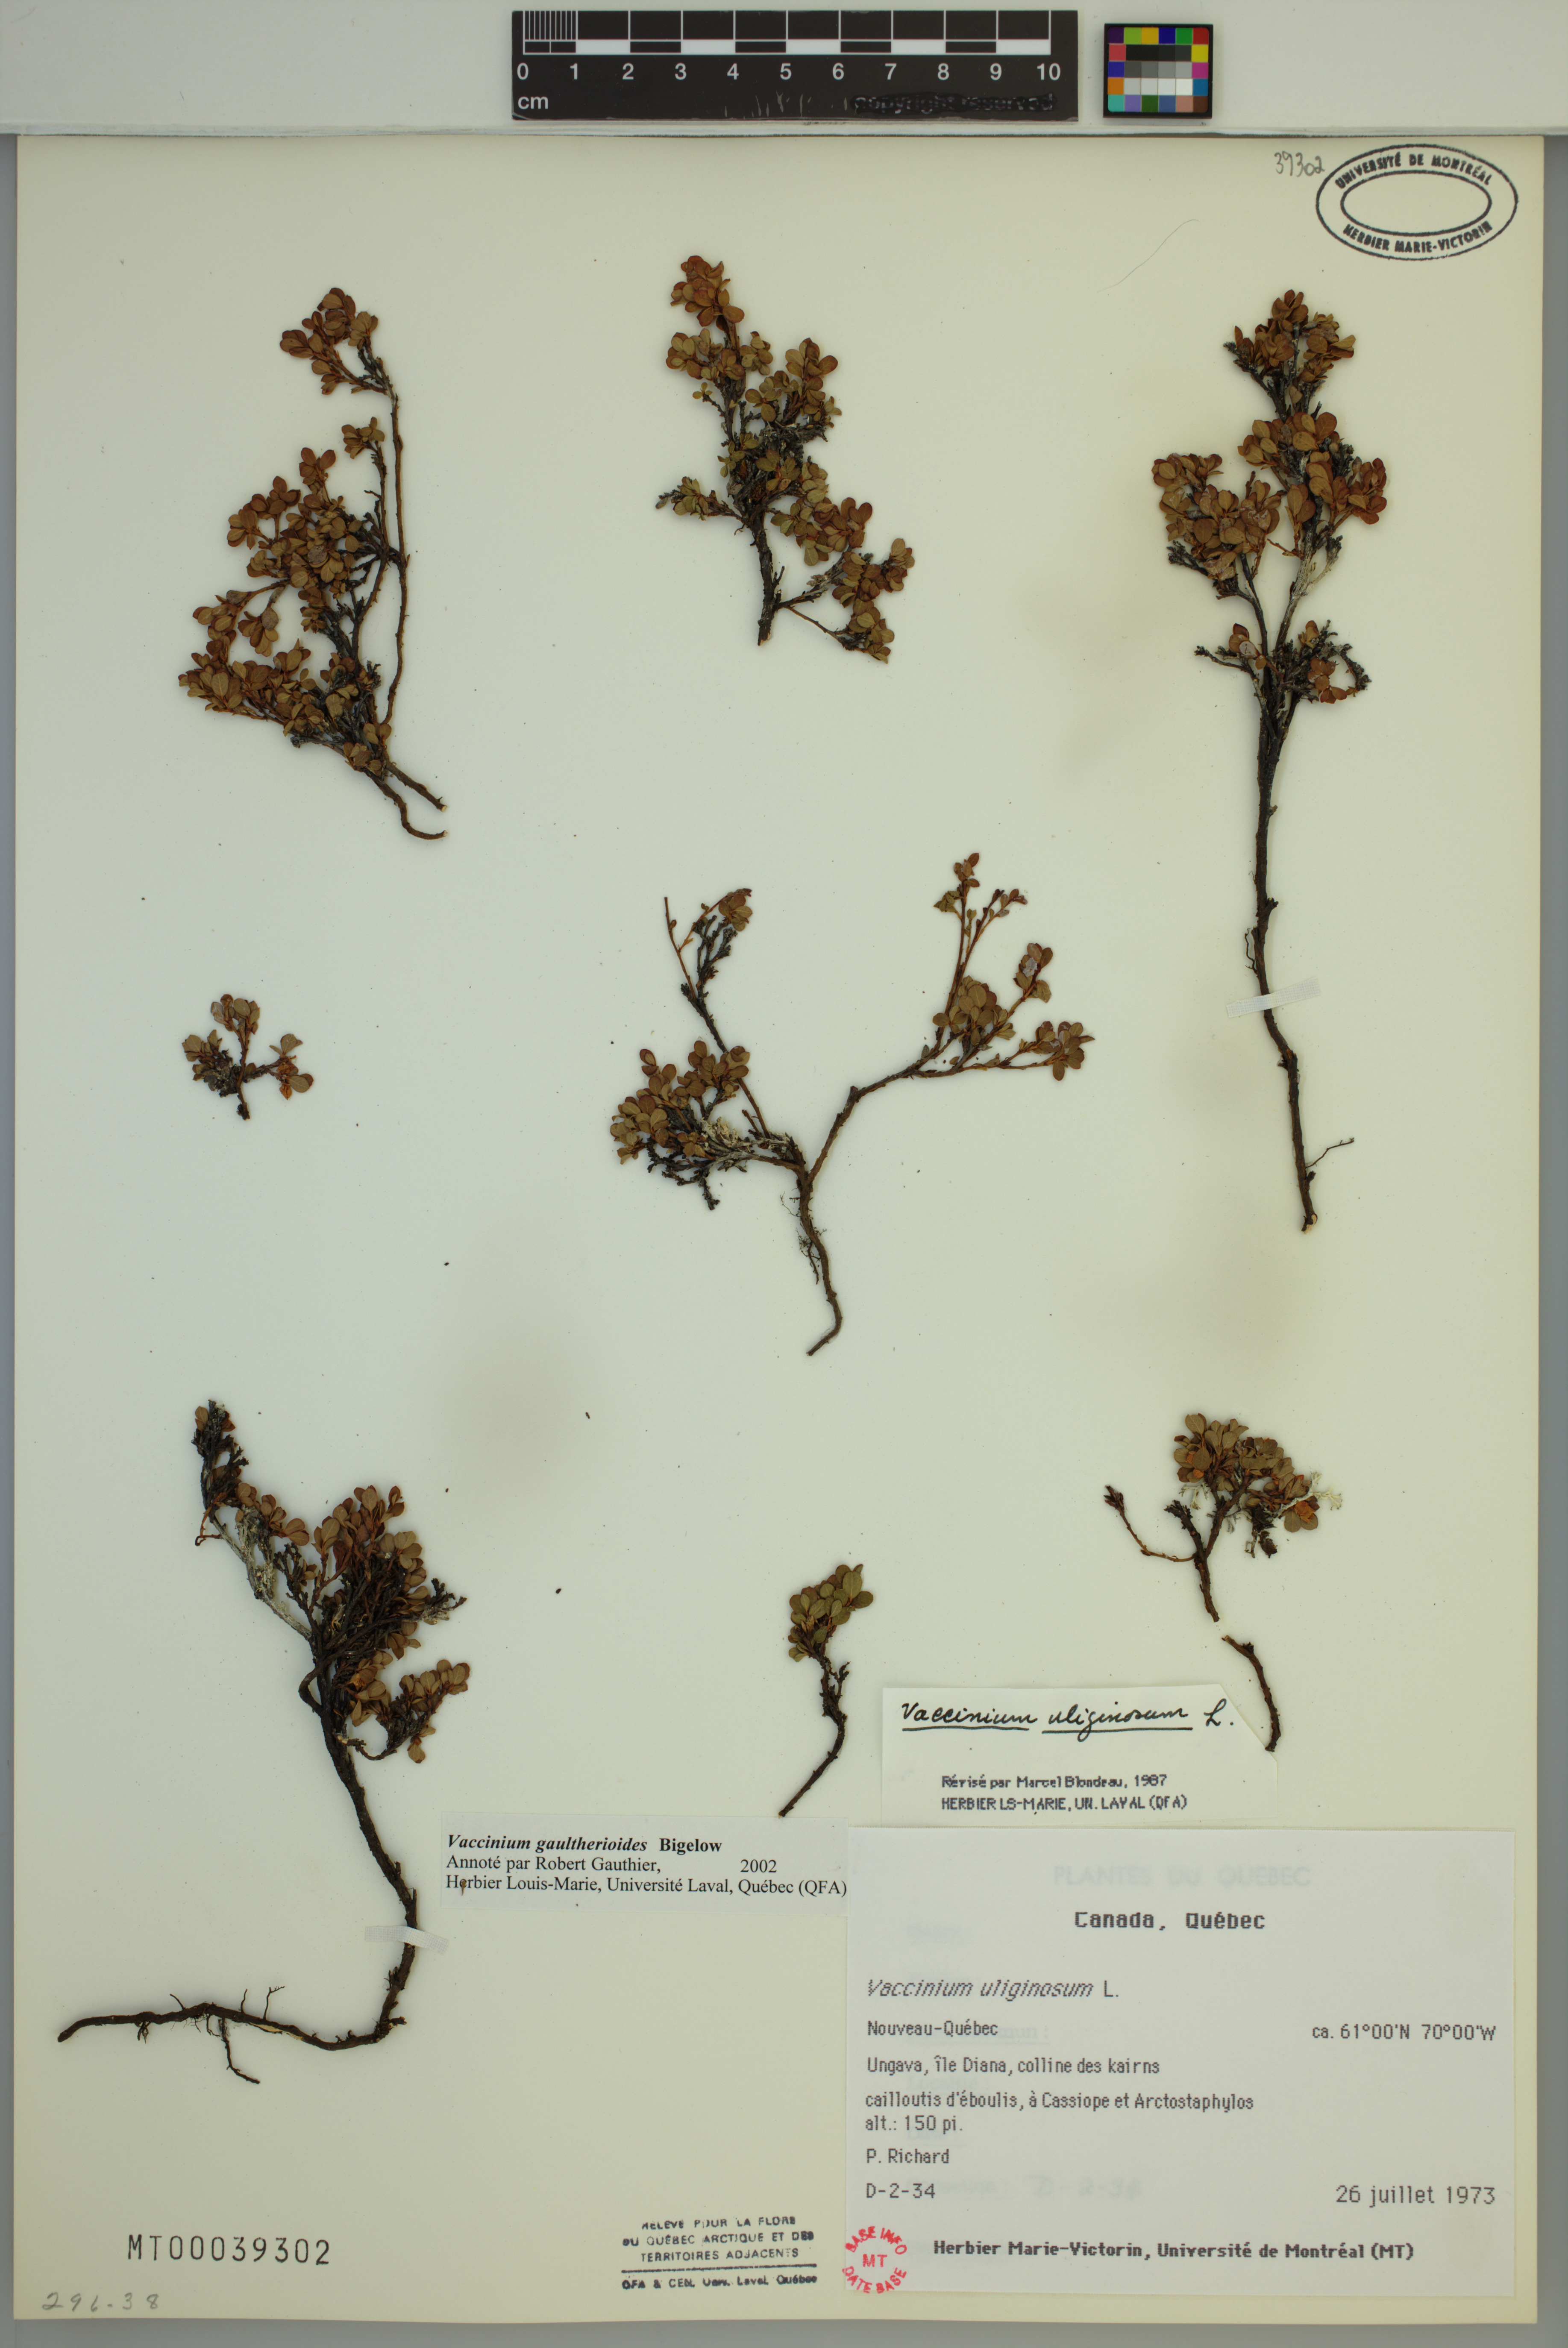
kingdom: Plantae
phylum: Tracheophyta
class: Magnoliopsida
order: Ericales
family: Ericaceae
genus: Vaccinium
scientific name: Vaccinium uliginosum
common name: Bog bilberry
